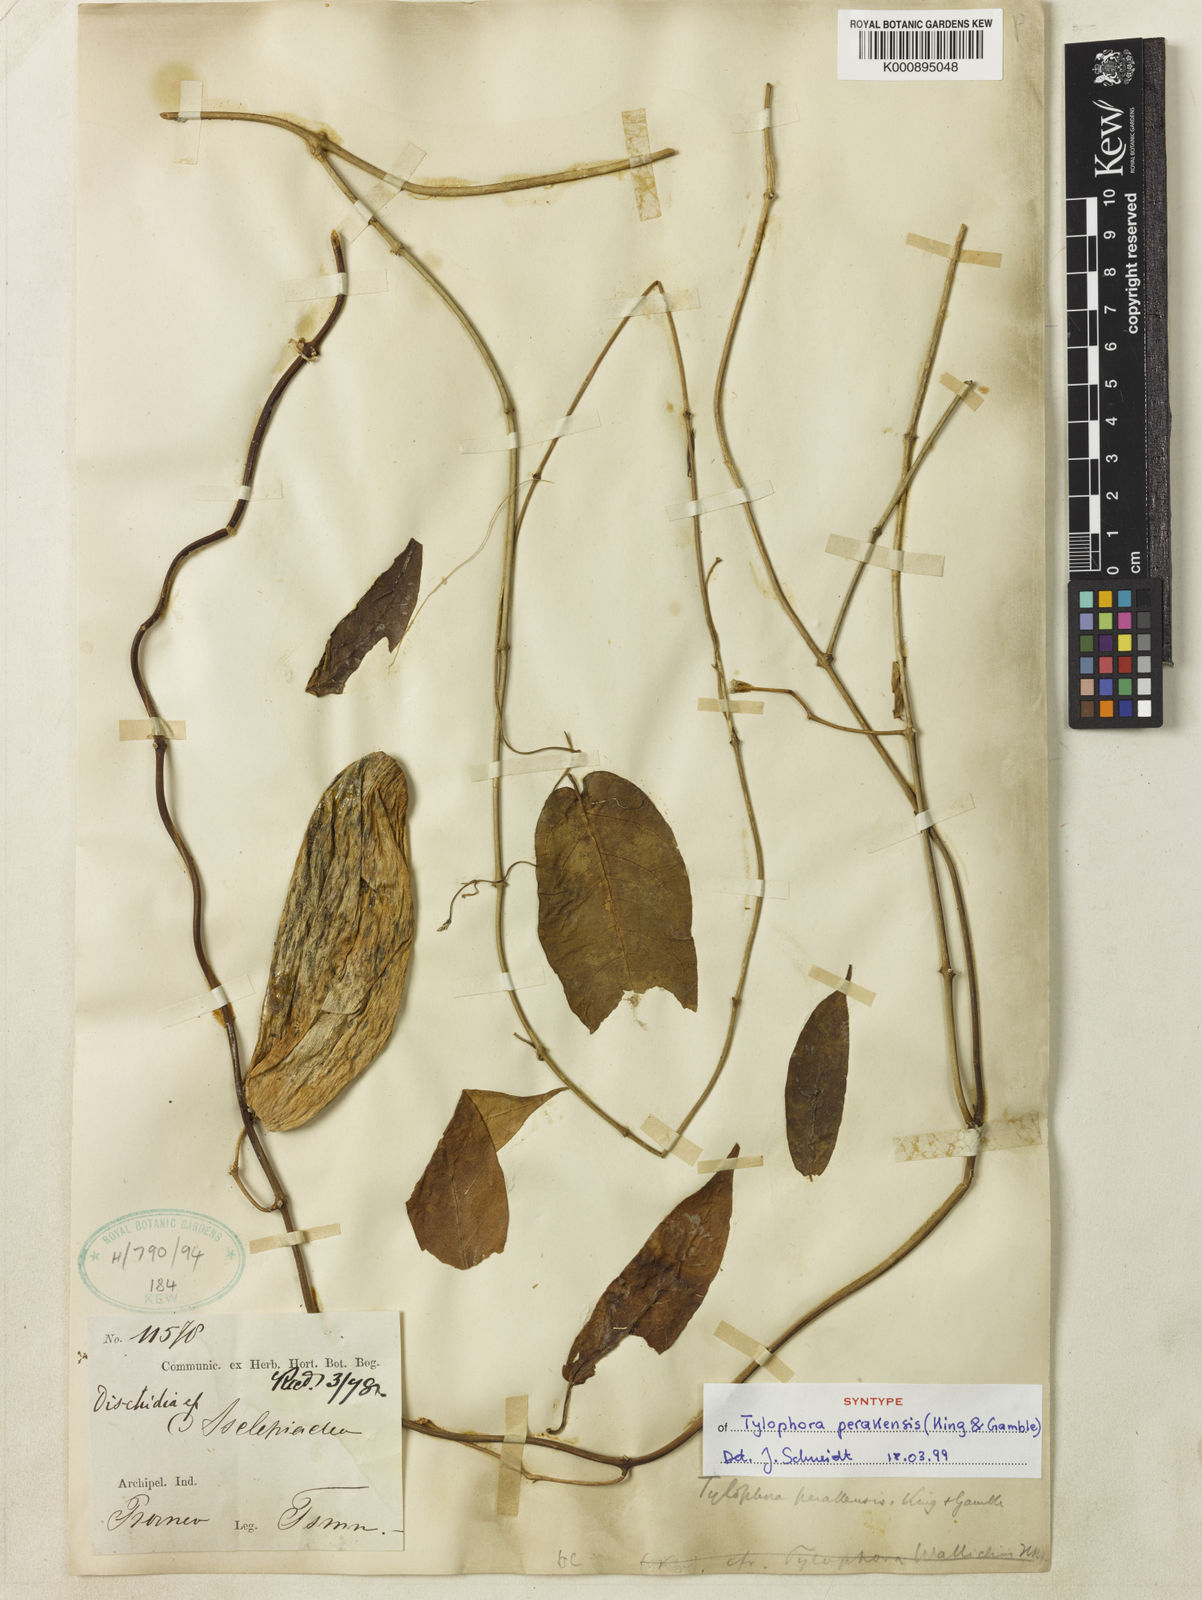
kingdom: Plantae
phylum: Tracheophyta
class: Magnoliopsida
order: Gentianales
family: Apocynaceae
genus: Vincetoxicum
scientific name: Vincetoxicum cissoides
